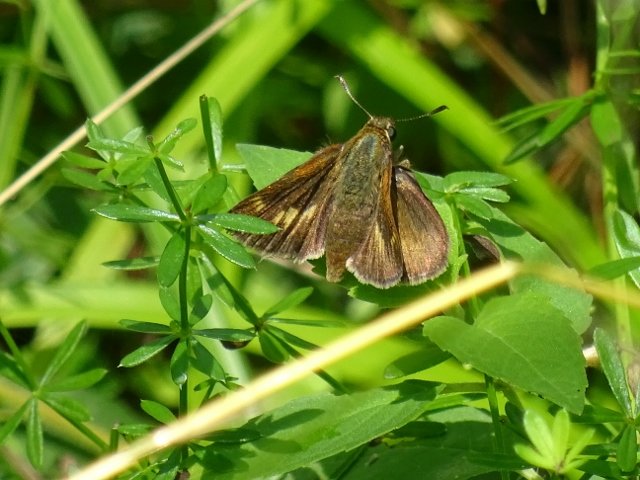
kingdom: Animalia
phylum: Arthropoda
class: Insecta
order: Lepidoptera
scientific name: Lepidoptera
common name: Butterflies
